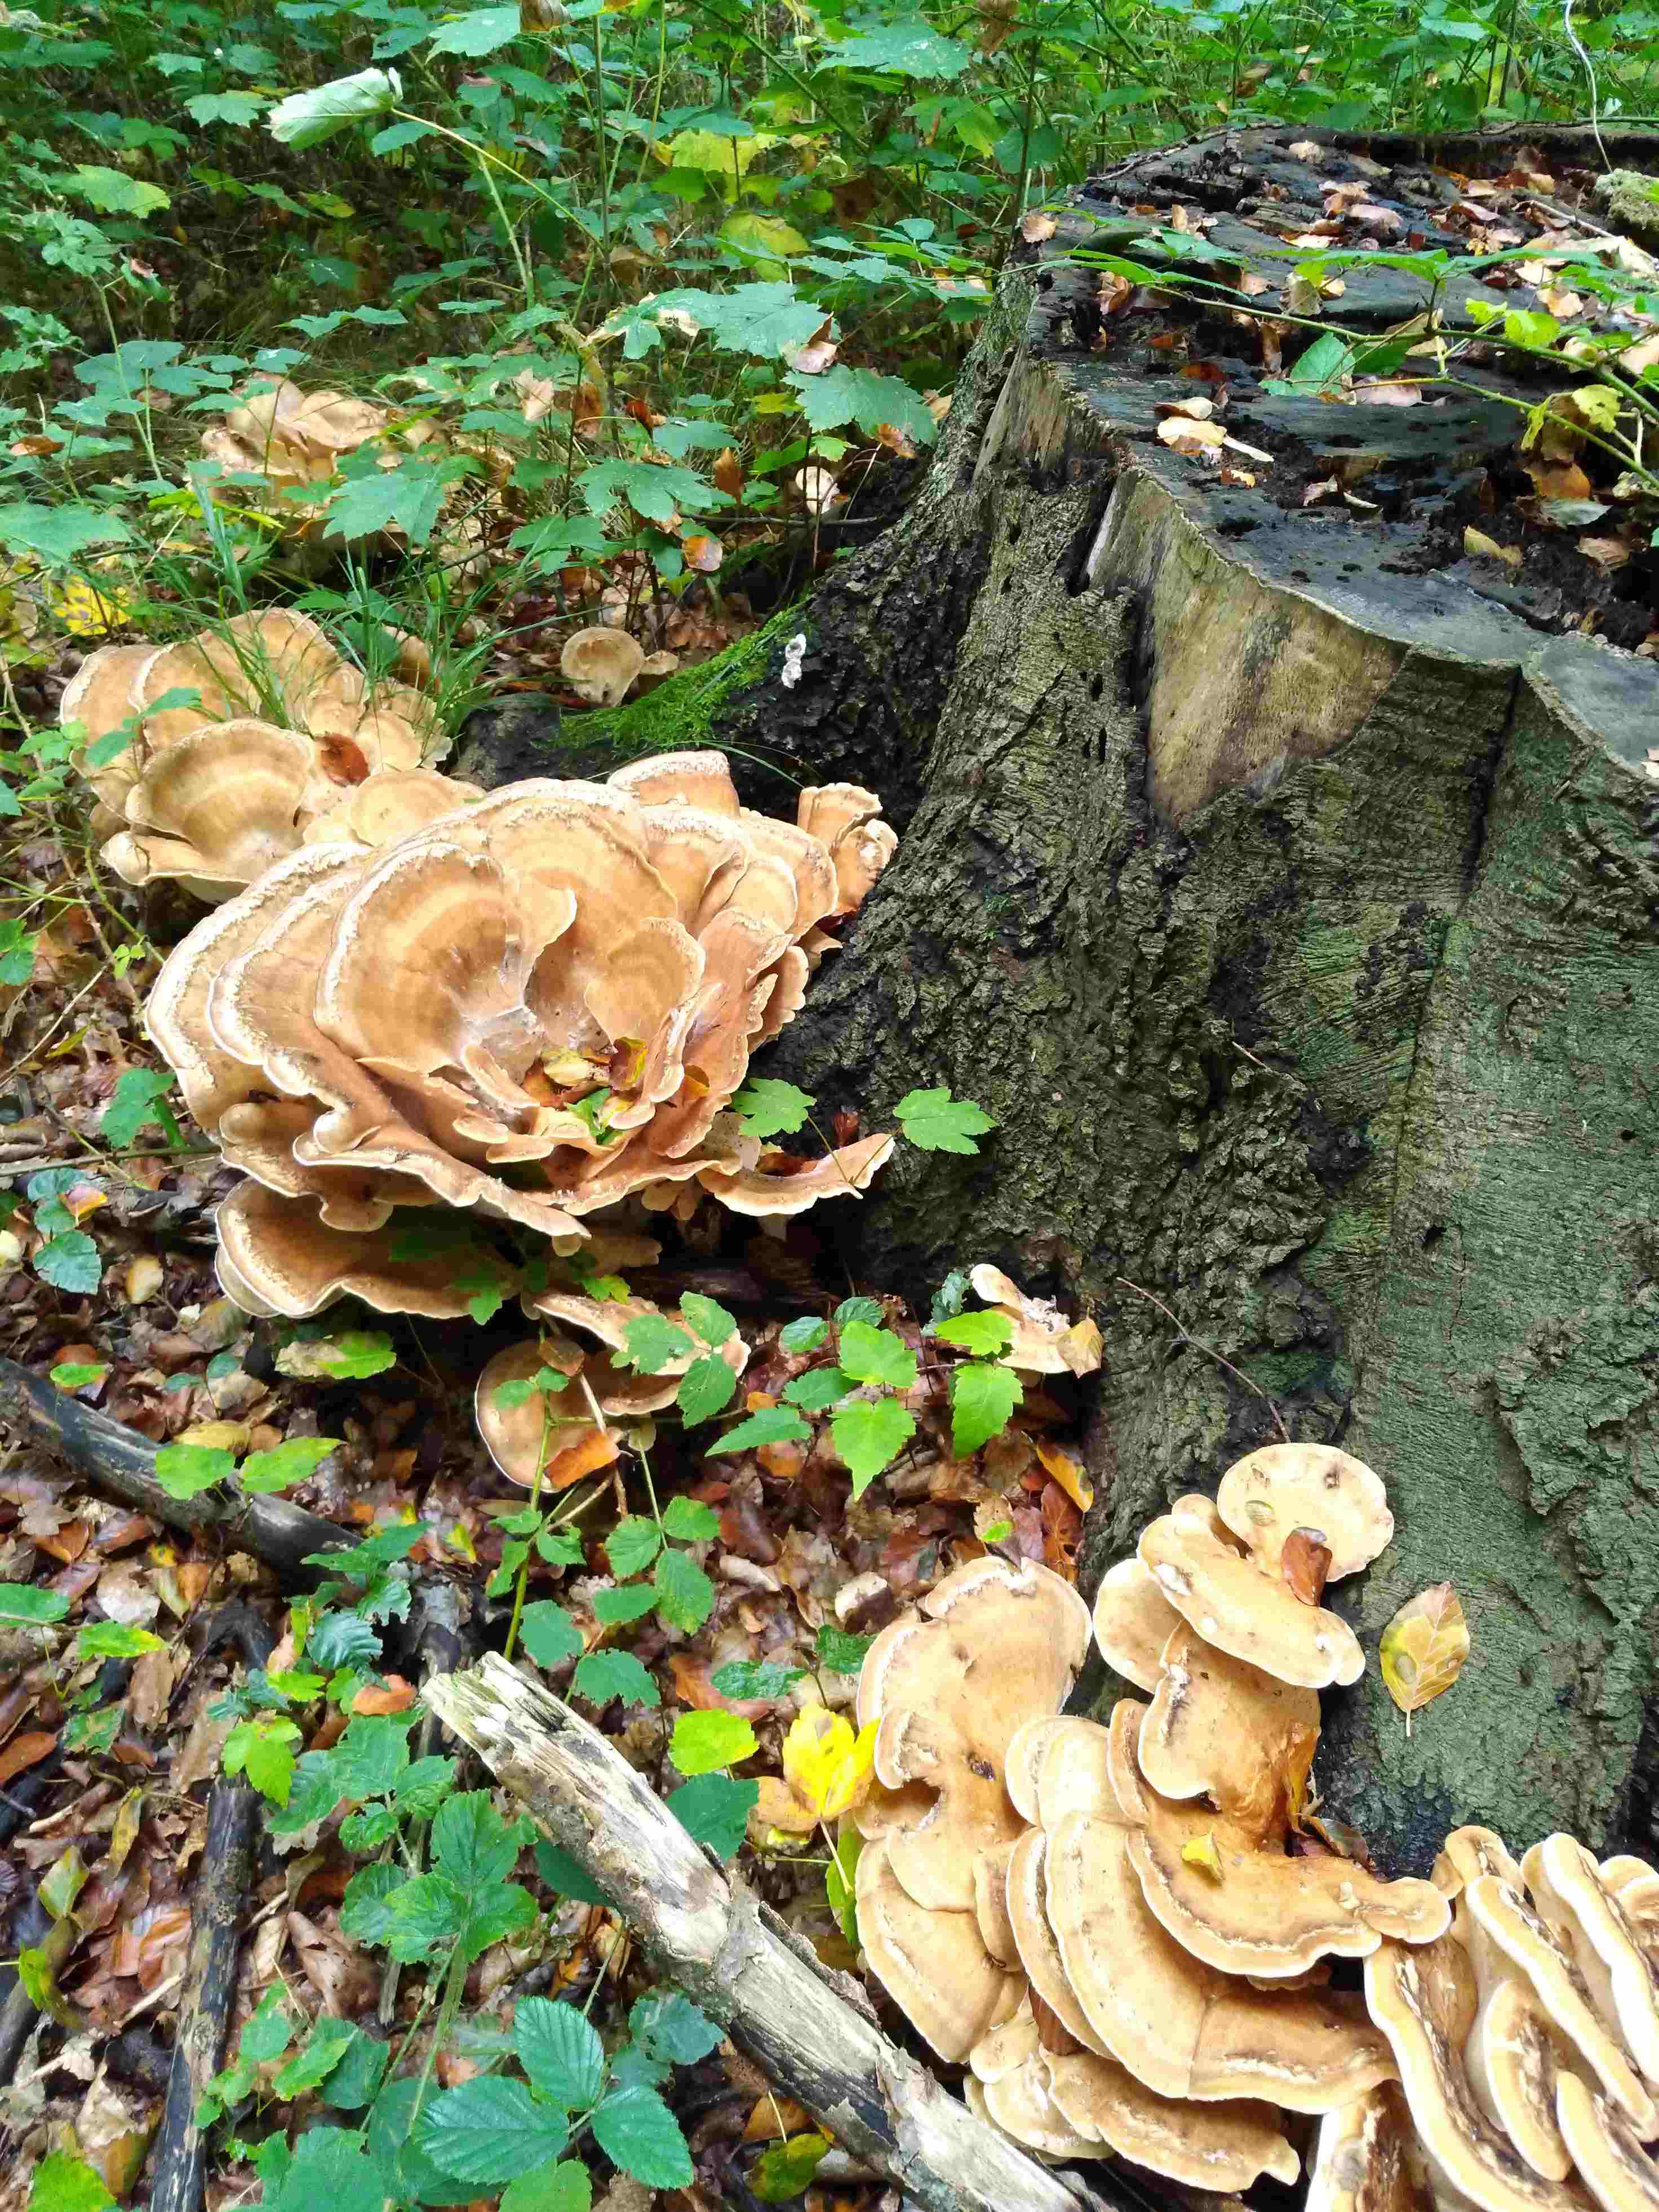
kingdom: Fungi
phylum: Basidiomycota
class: Agaricomycetes
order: Polyporales
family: Meripilaceae
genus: Meripilus
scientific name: Meripilus giganteus
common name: kæmpeporesvamp
